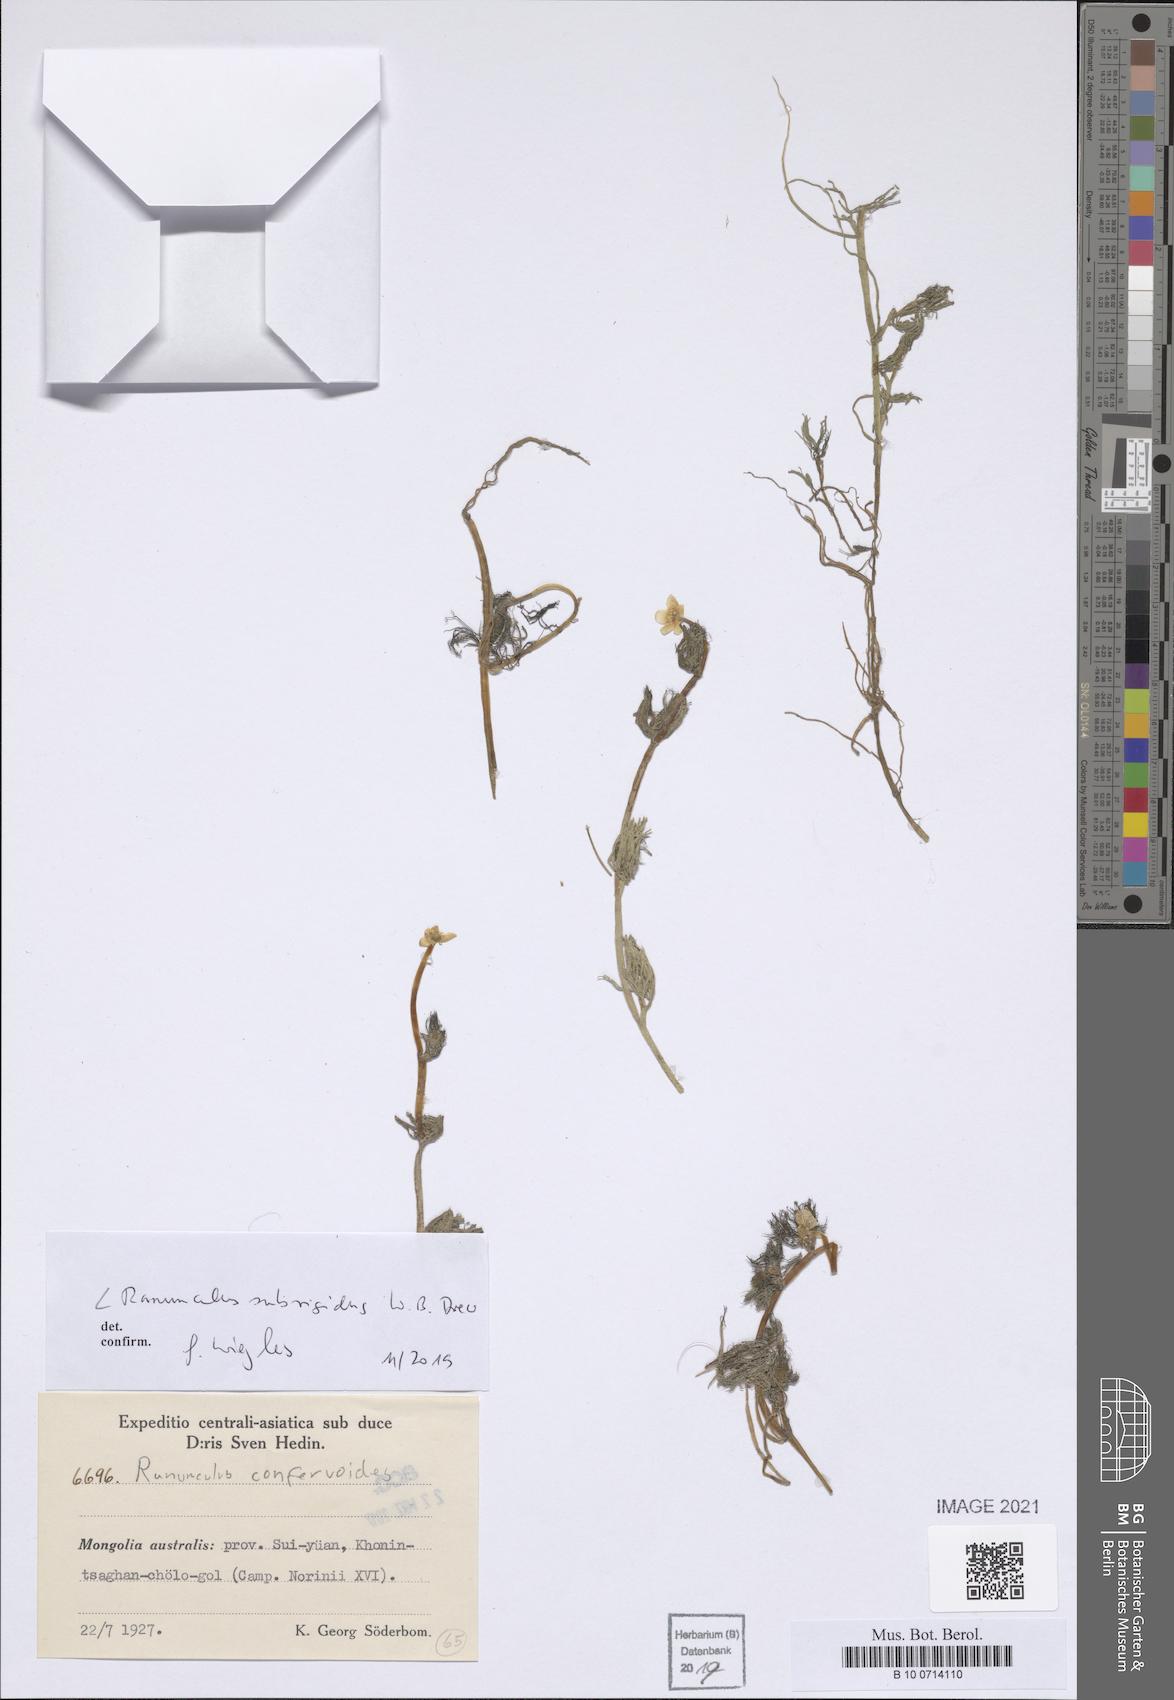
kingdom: Plantae
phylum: Tracheophyta
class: Magnoliopsida
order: Ranunculales
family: Ranunculaceae
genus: Ranunculus
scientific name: Ranunculus longirostris
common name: Curly white water-crowfoot
